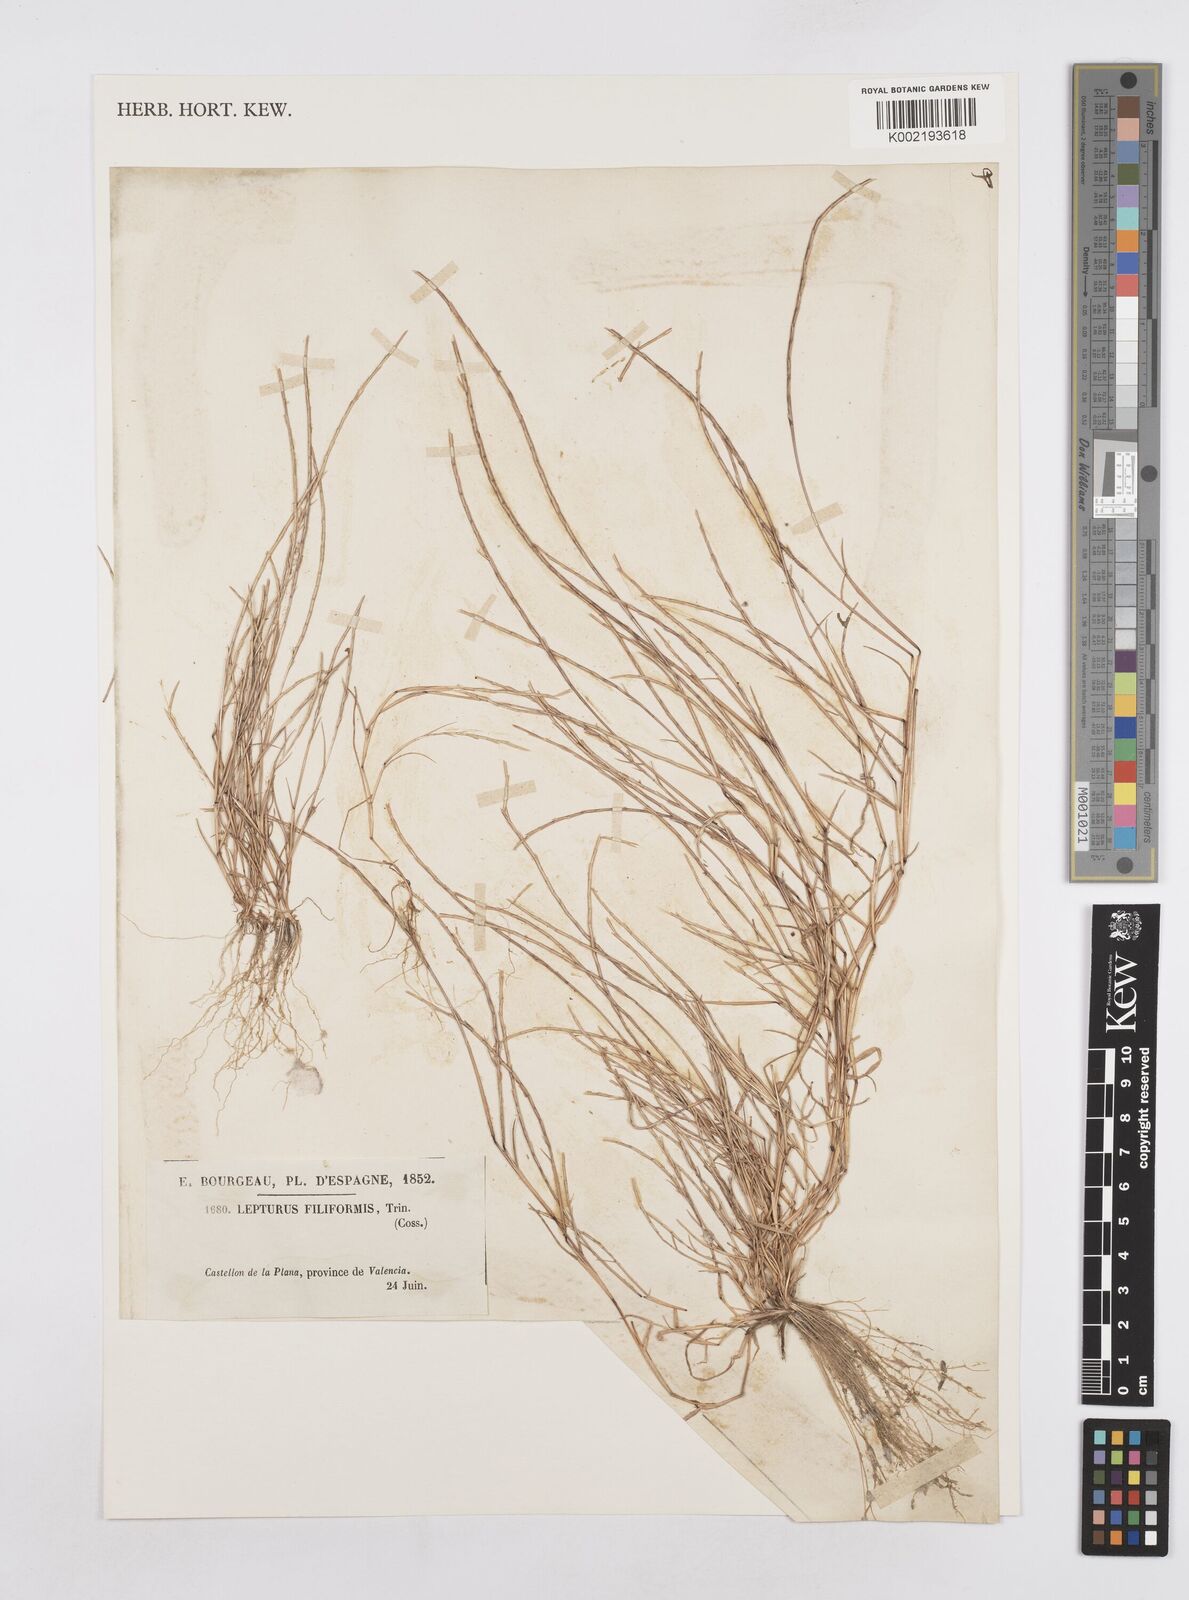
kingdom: Plantae
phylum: Tracheophyta
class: Liliopsida
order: Poales
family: Poaceae
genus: Parapholis
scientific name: Parapholis filiformis
